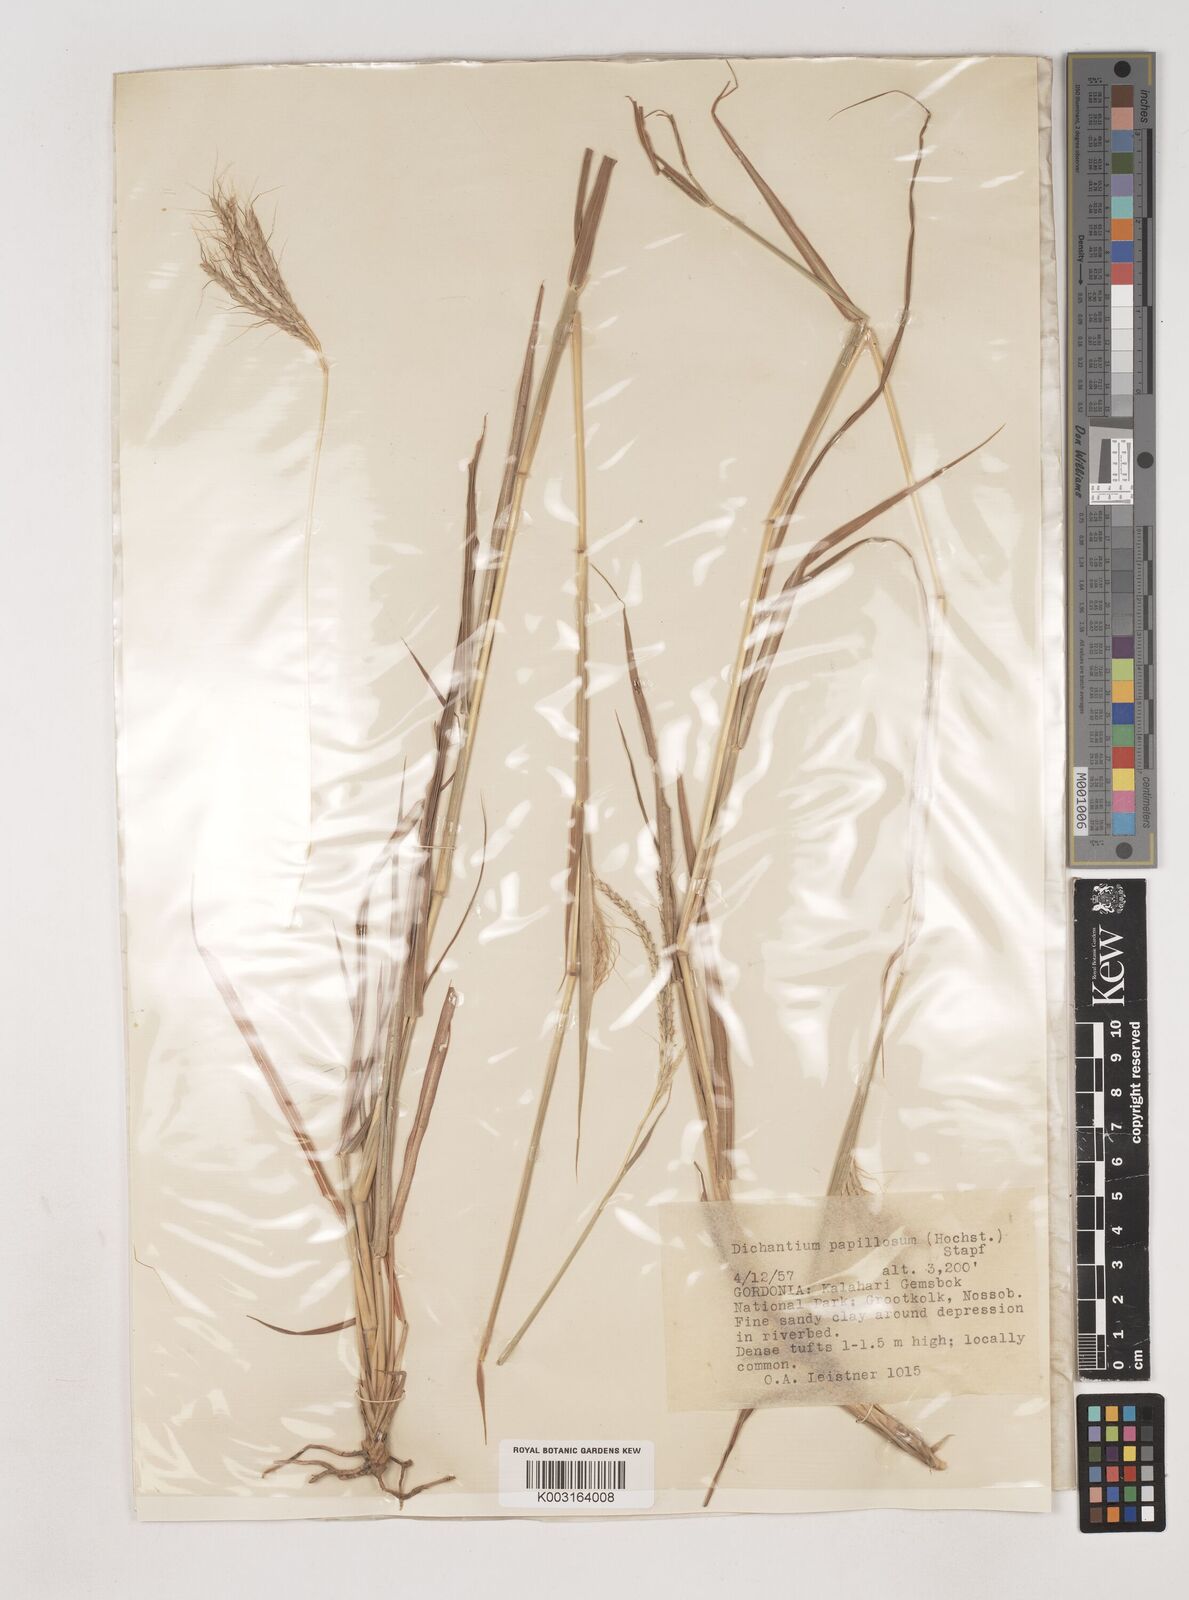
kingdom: Plantae
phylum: Tracheophyta
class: Liliopsida
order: Poales
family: Poaceae
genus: Dichanthium
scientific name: Dichanthium annulatum
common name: Kleberg's bluestem
